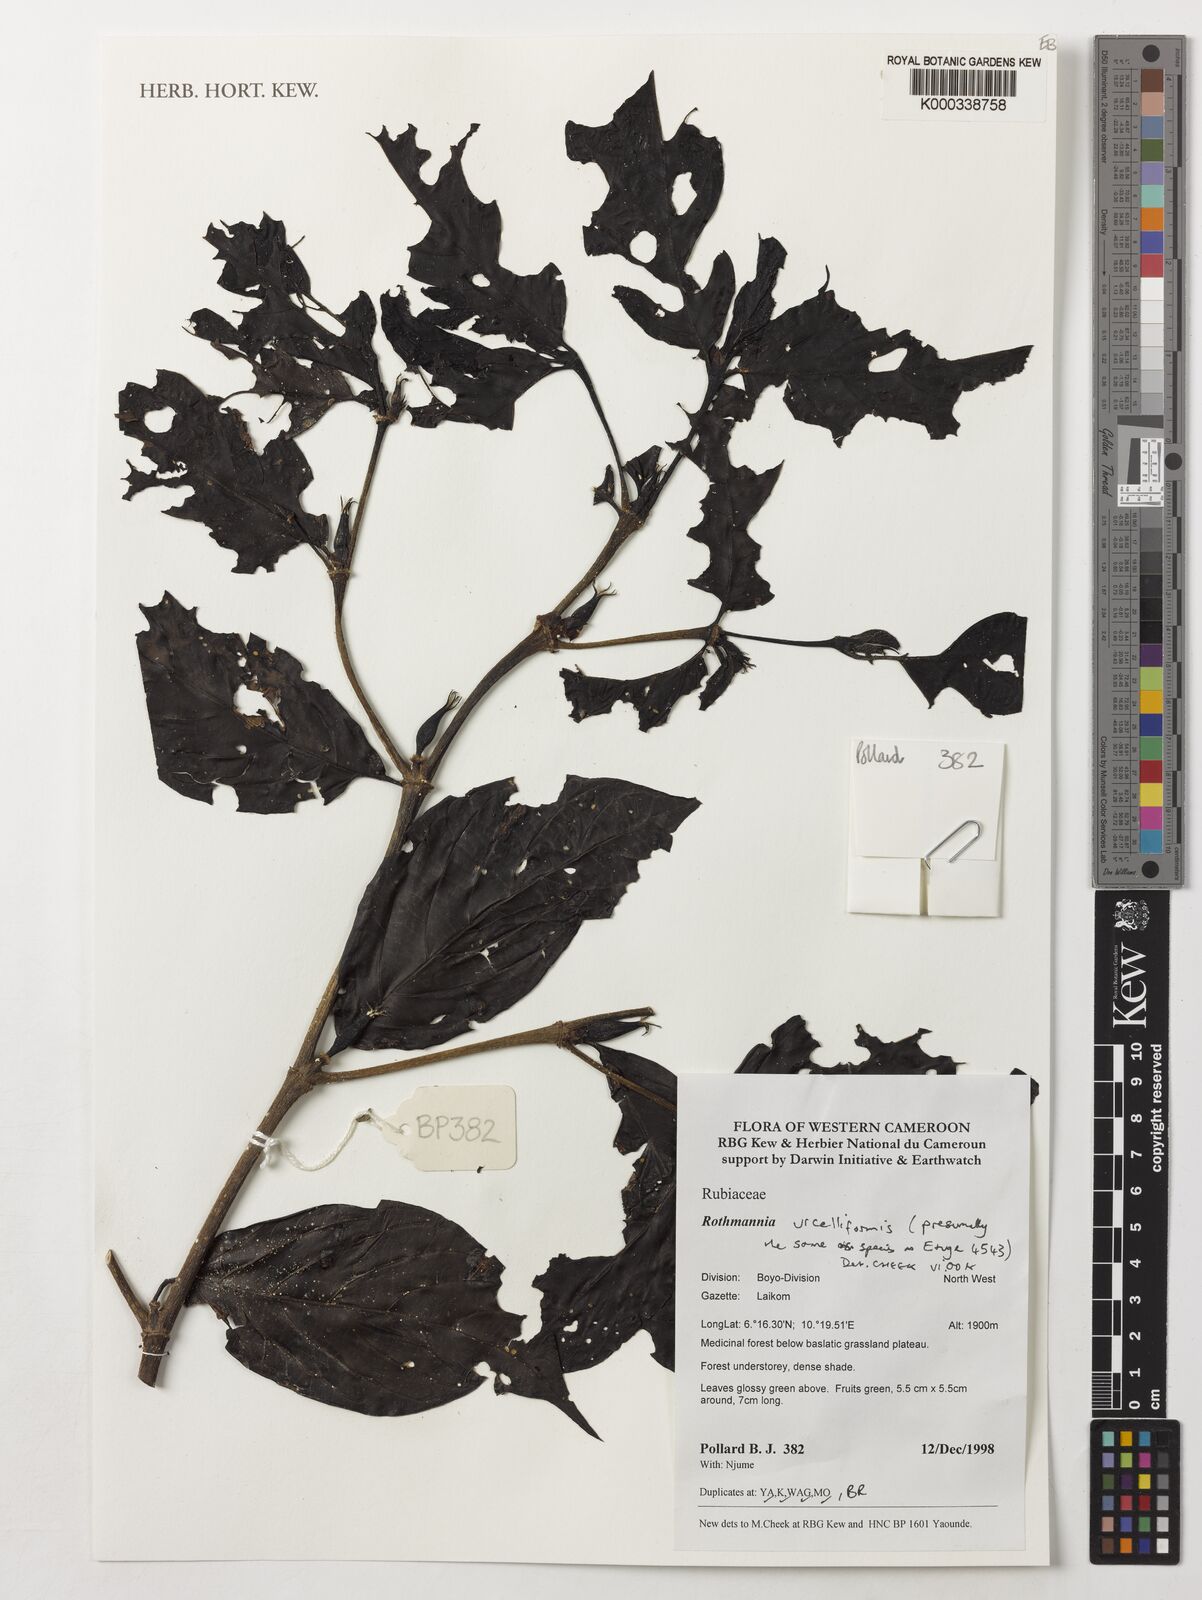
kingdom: Plantae
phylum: Tracheophyta
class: Magnoliopsida
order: Gentianales
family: Rubiaceae
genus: Rothmannia
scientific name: Rothmannia urcelliformis
